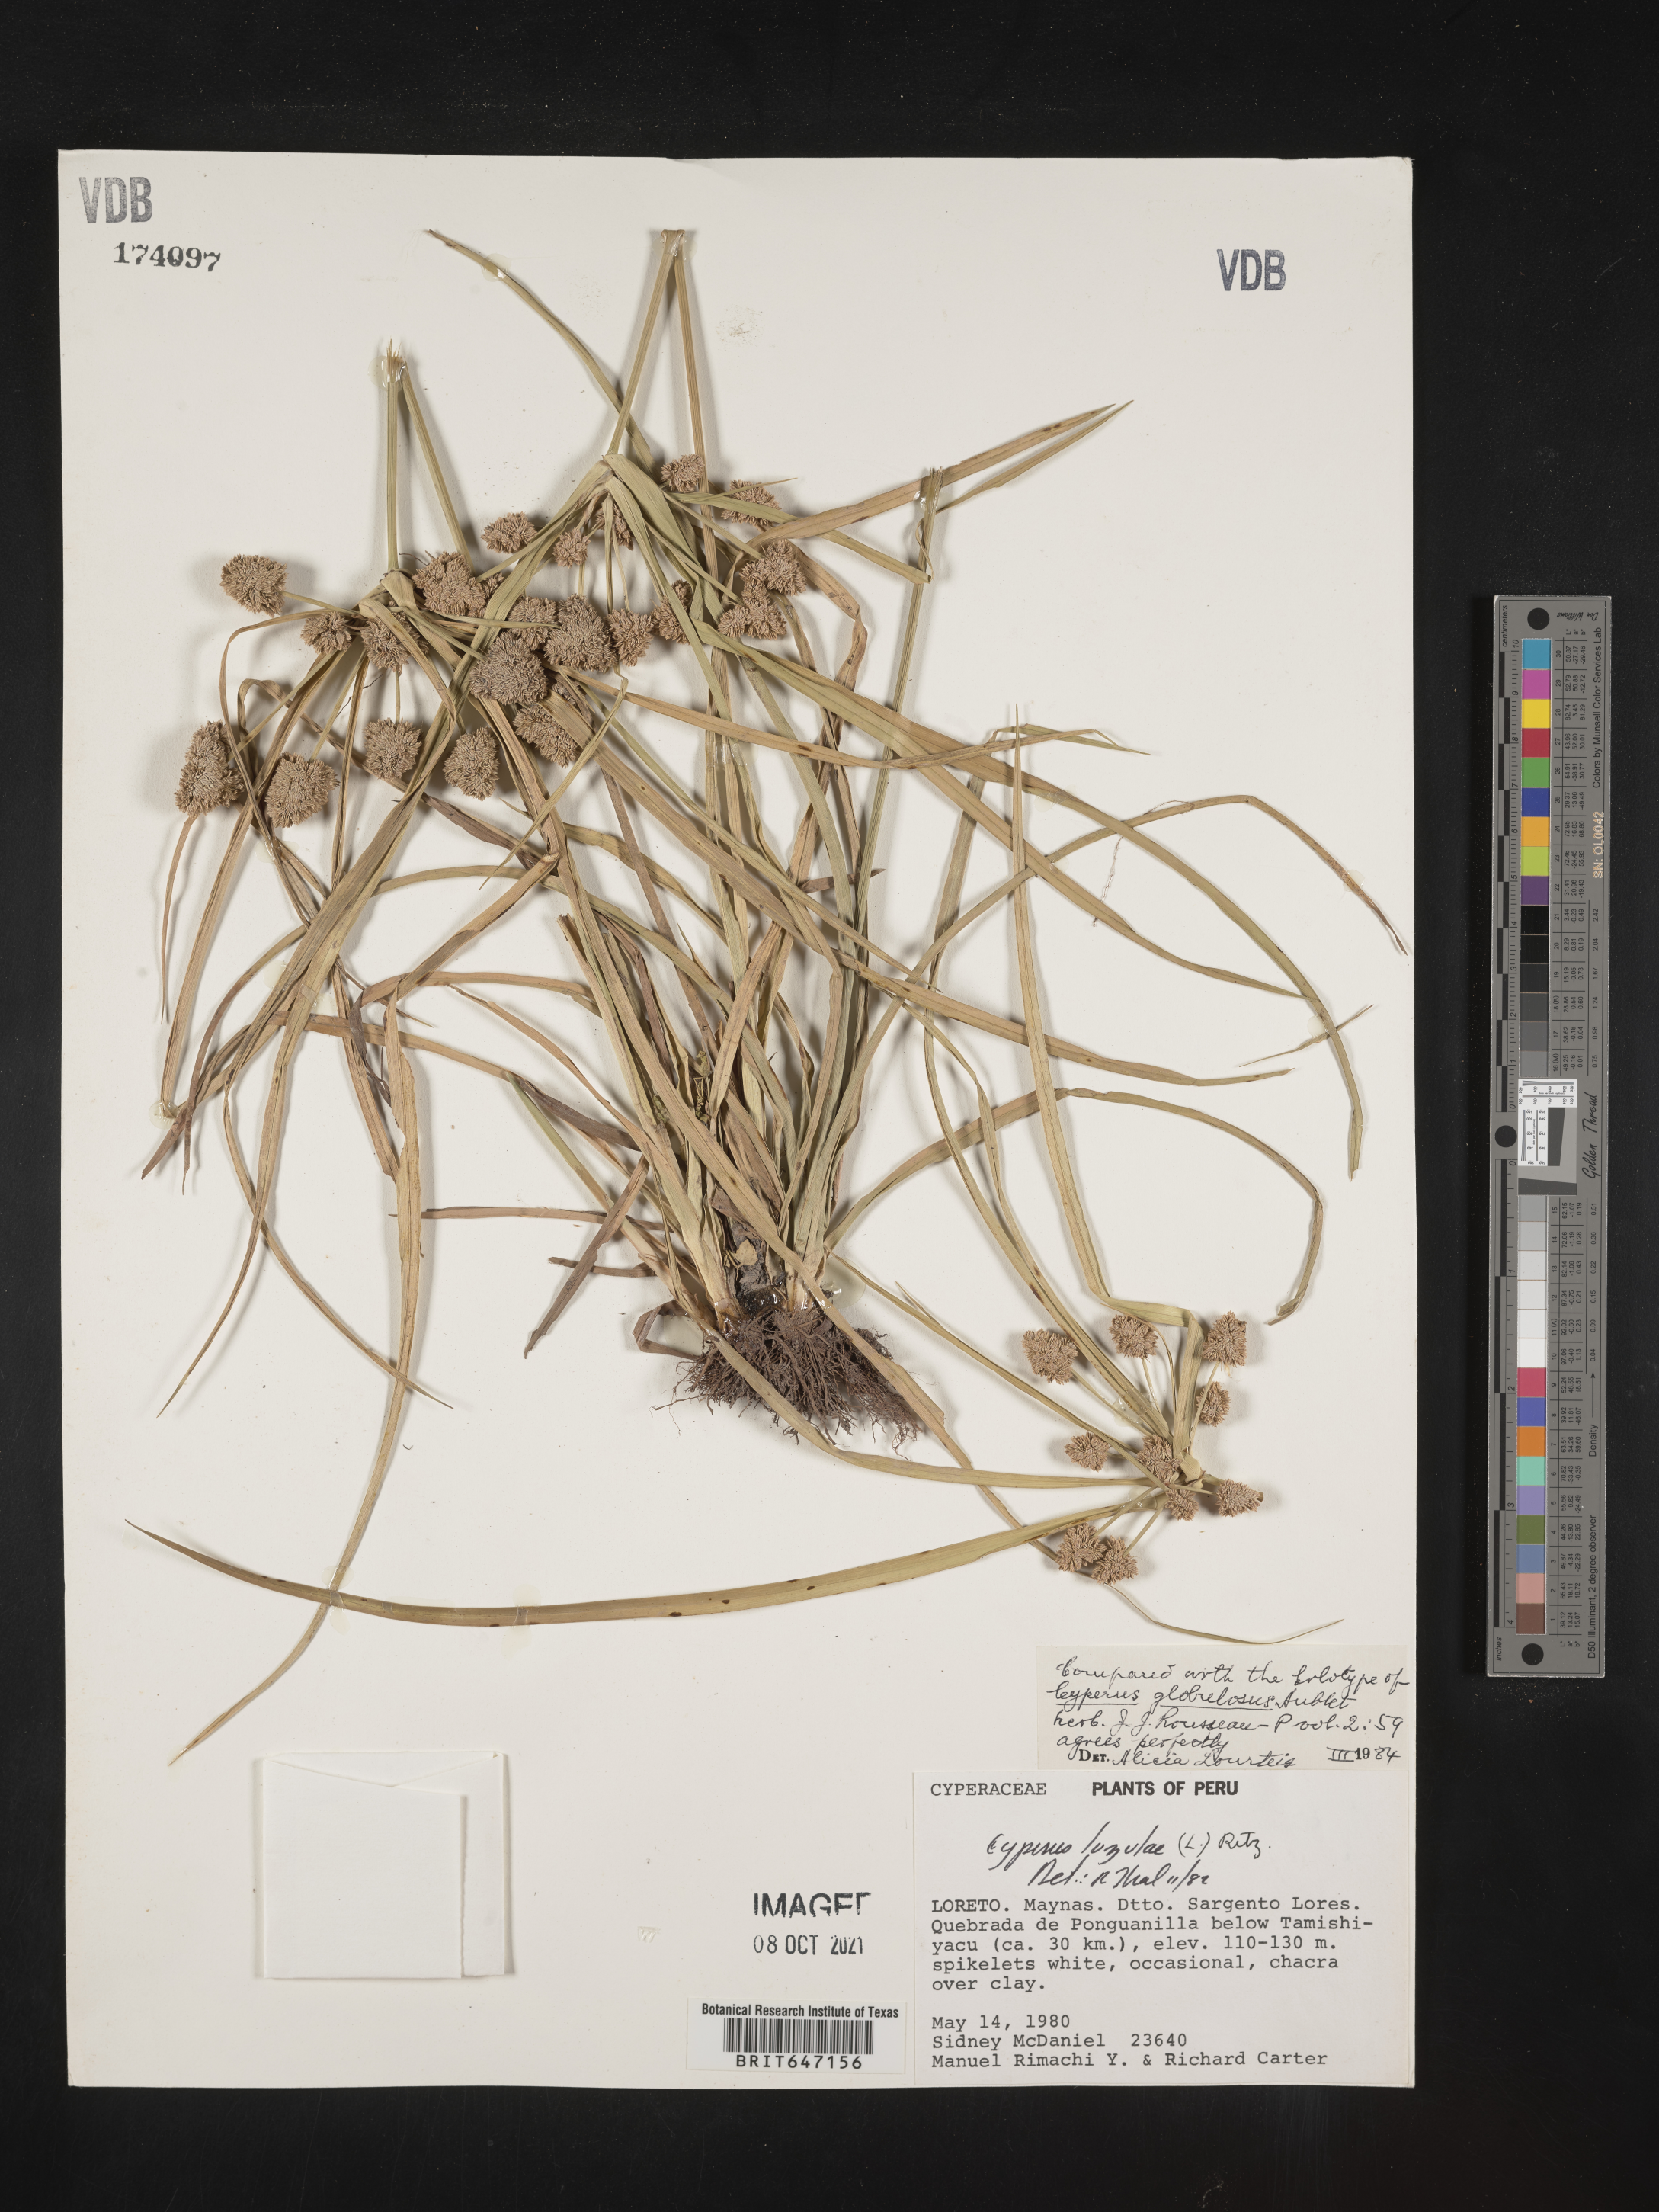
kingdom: Plantae
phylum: Tracheophyta
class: Liliopsida
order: Poales
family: Cyperaceae
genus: Cyperus
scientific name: Cyperus luzulae
